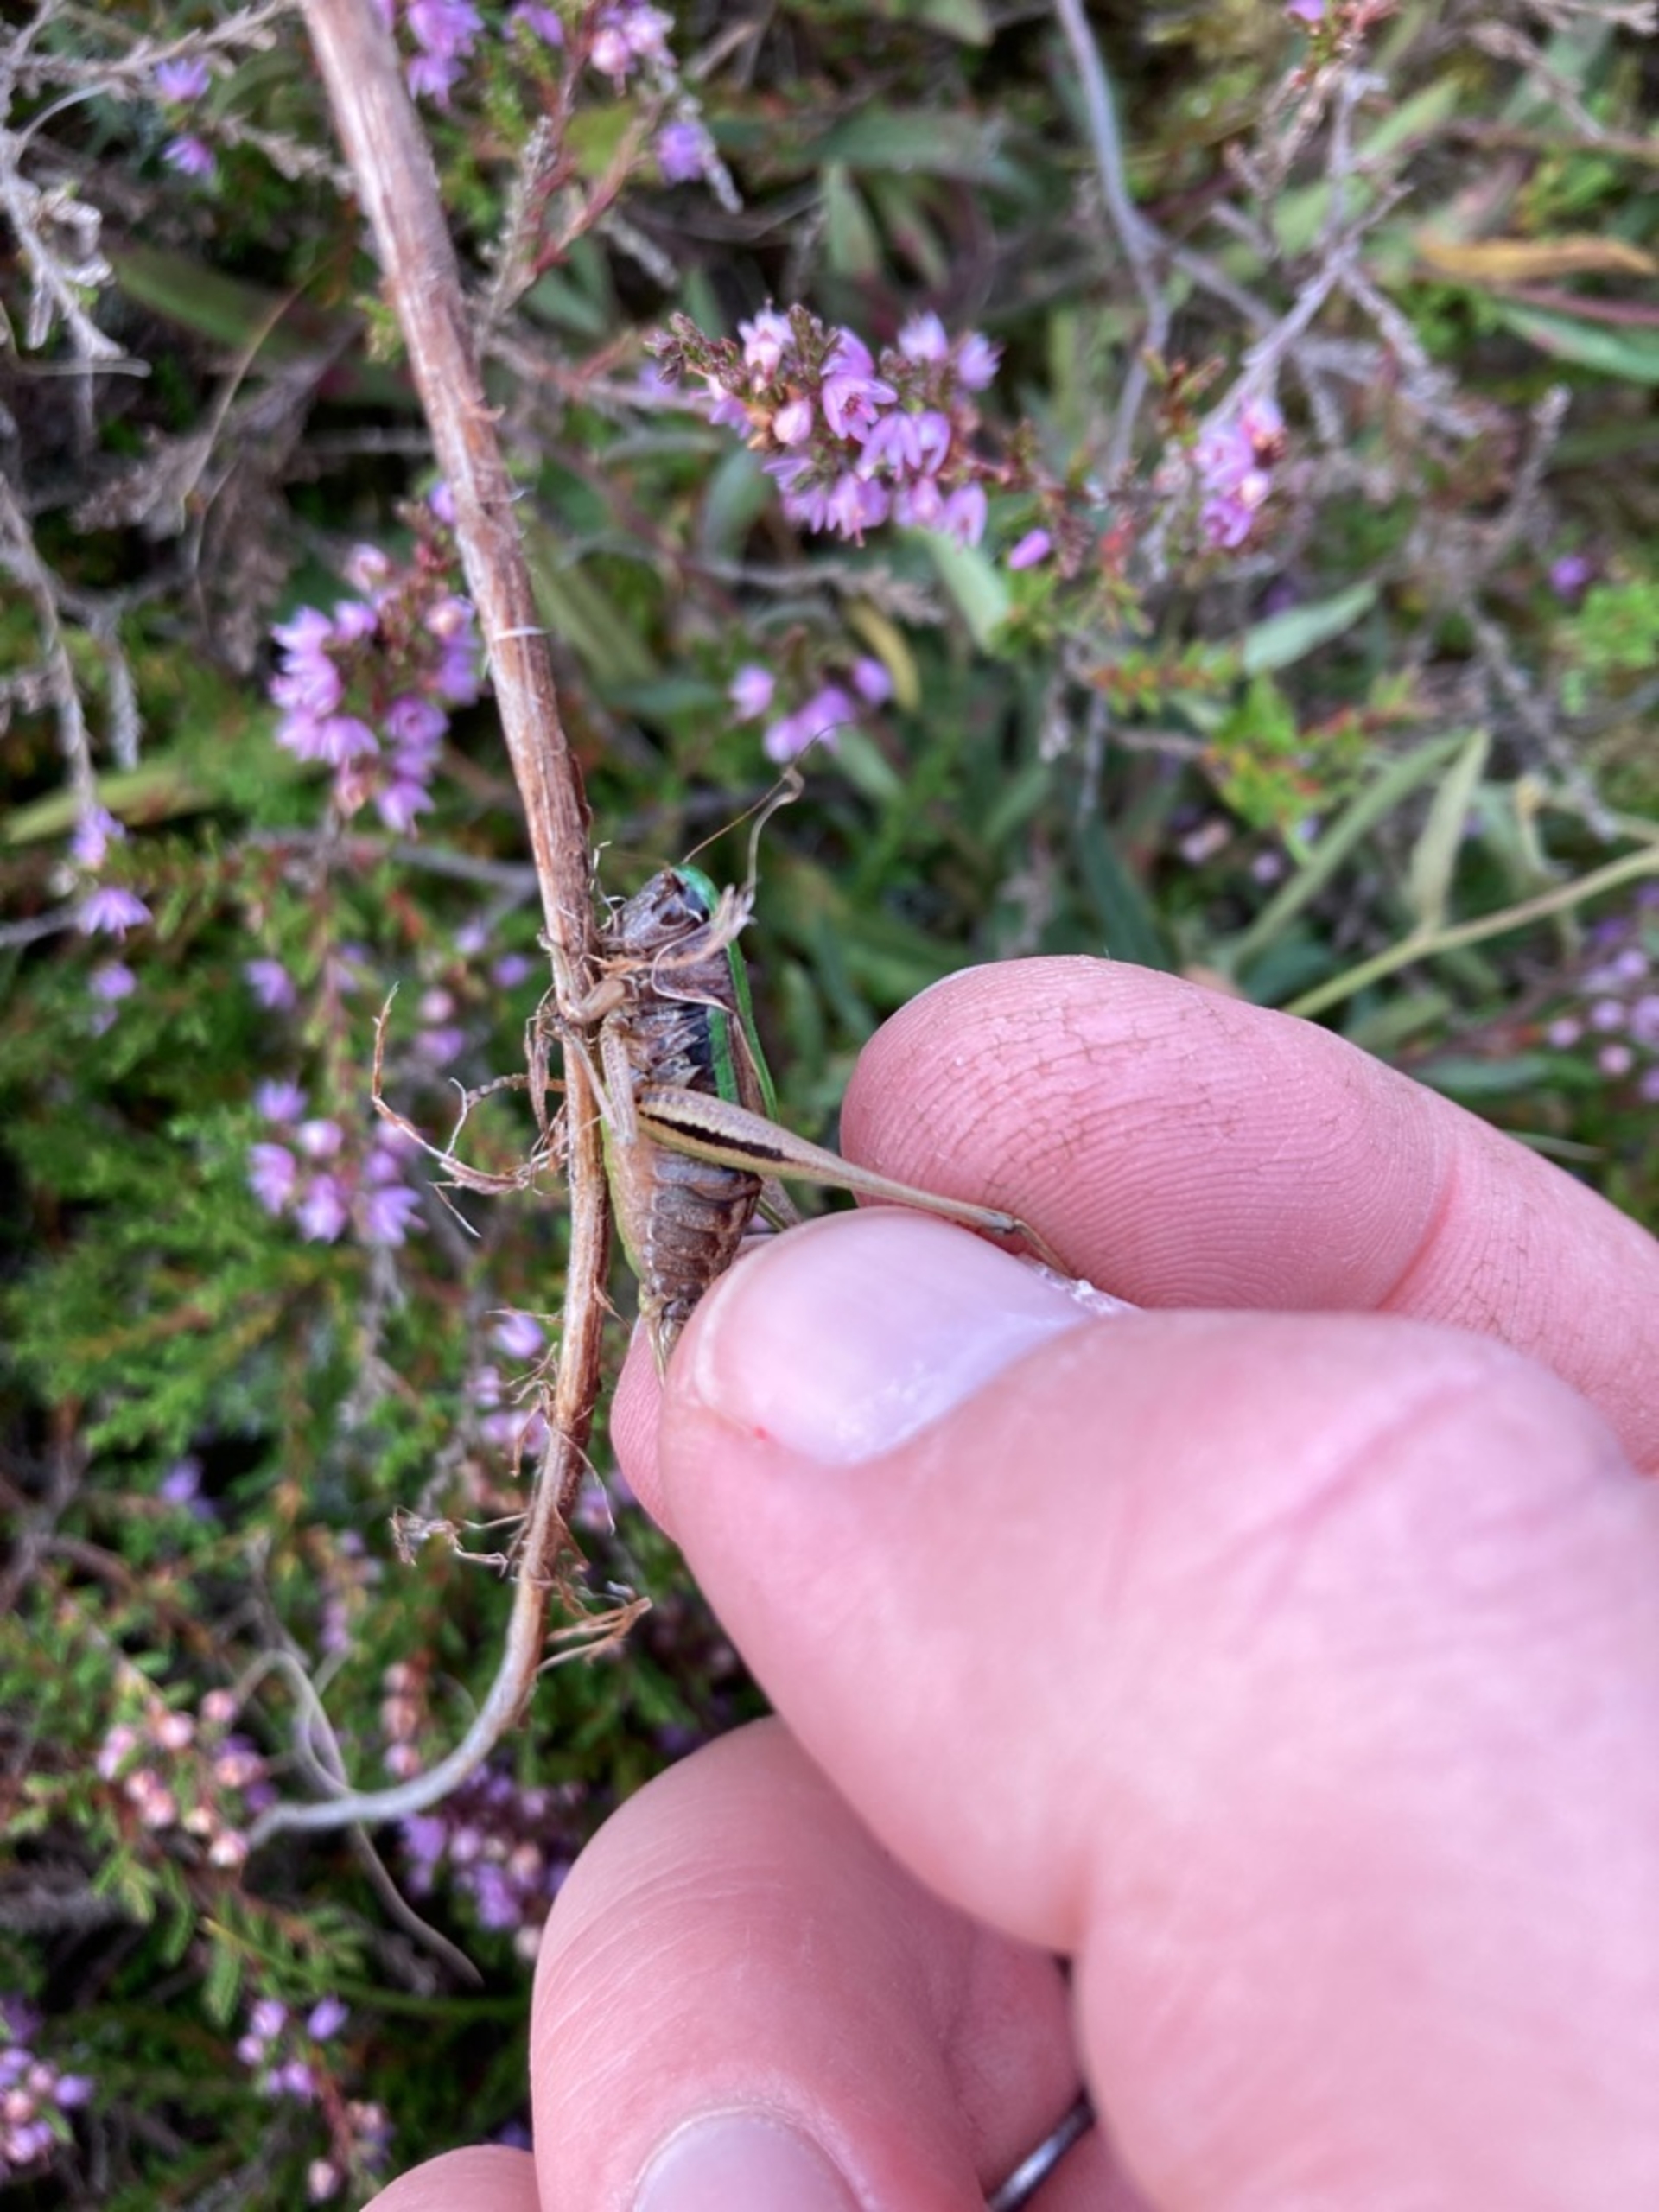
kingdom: Animalia
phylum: Arthropoda
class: Insecta
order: Orthoptera
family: Tettigoniidae
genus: Metrioptera
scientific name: Metrioptera brachyptera
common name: Hedegræshoppe
